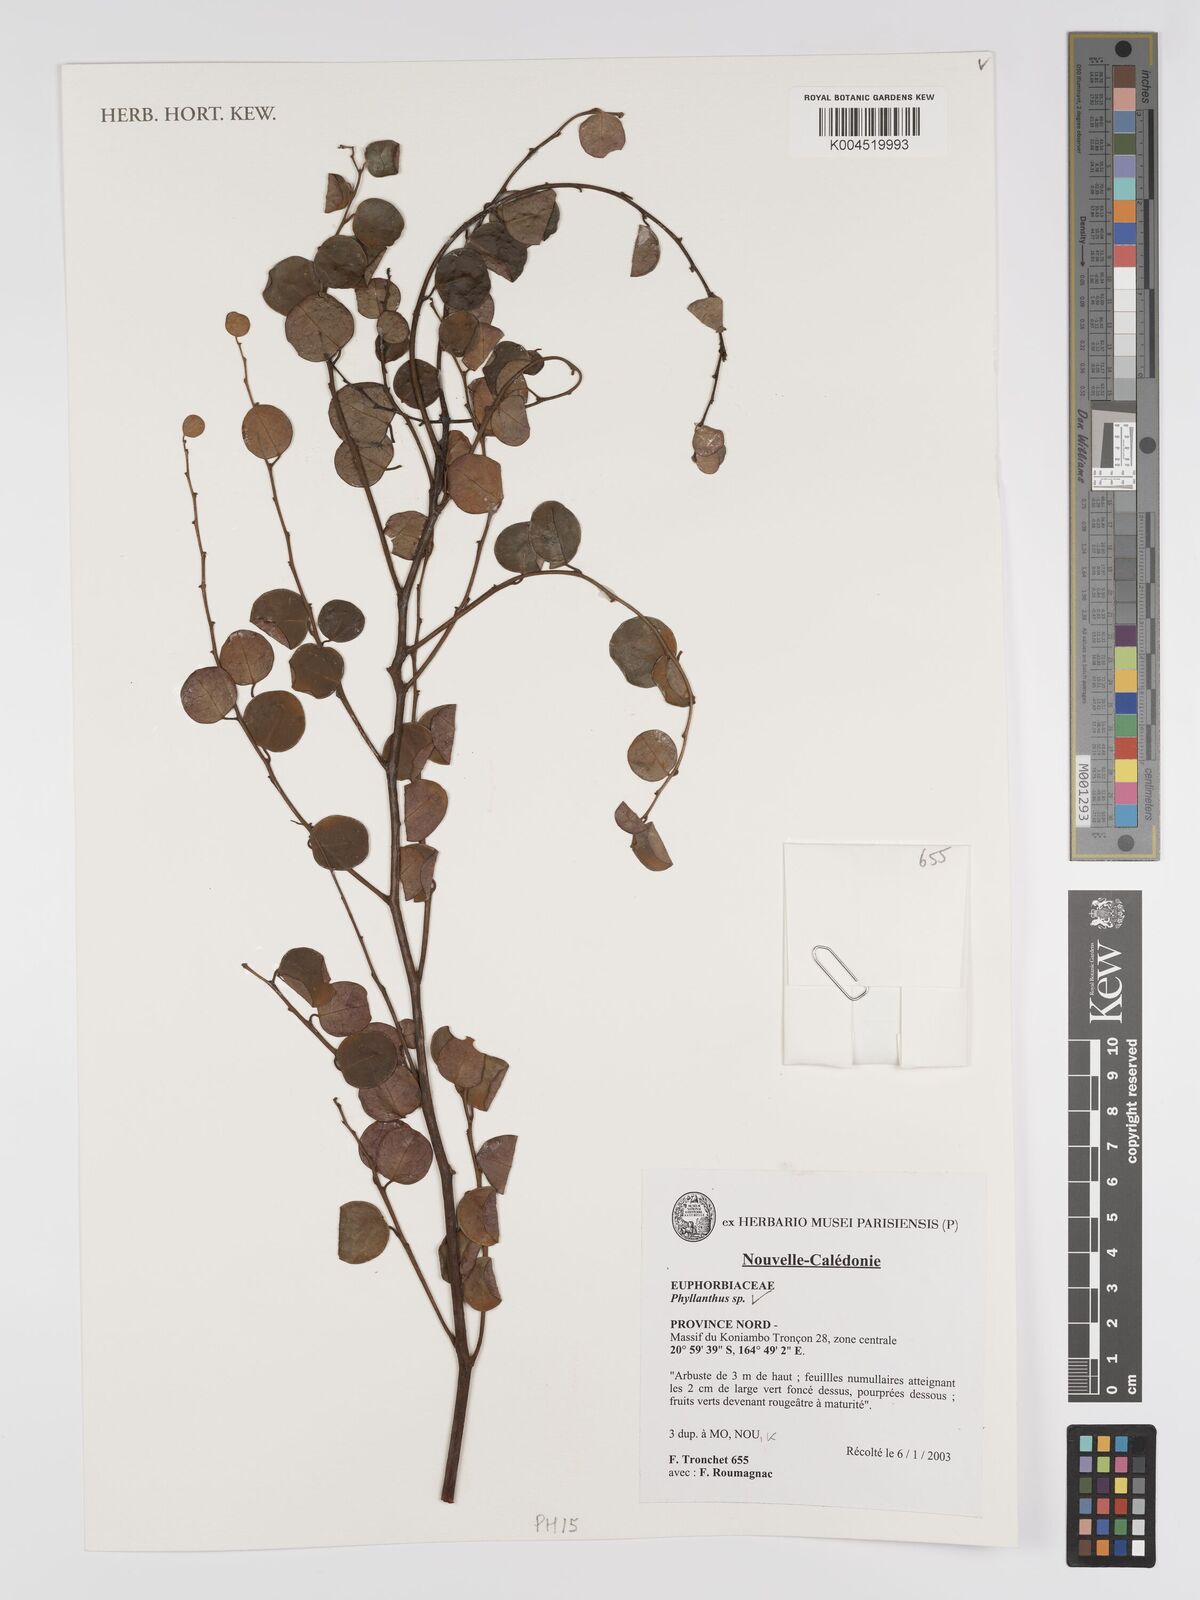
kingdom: Plantae
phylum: Tracheophyta
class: Magnoliopsida
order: Malpighiales
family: Phyllanthaceae
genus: Phyllanthus
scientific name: Phyllanthus
